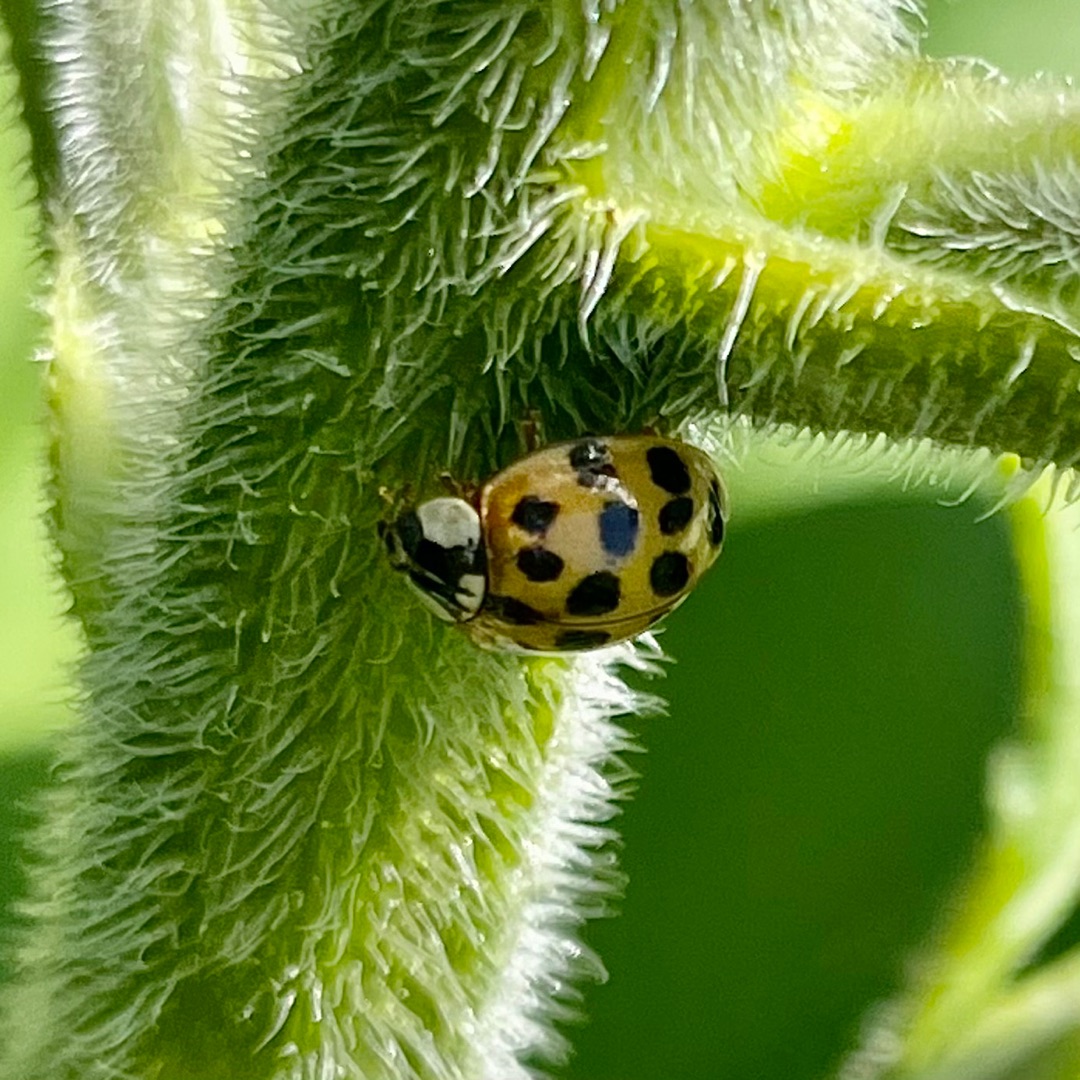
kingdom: Animalia
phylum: Arthropoda
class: Insecta
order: Coleoptera
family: Coccinellidae
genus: Harmonia
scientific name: Harmonia axyridis
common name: Harlekinmariehøne
